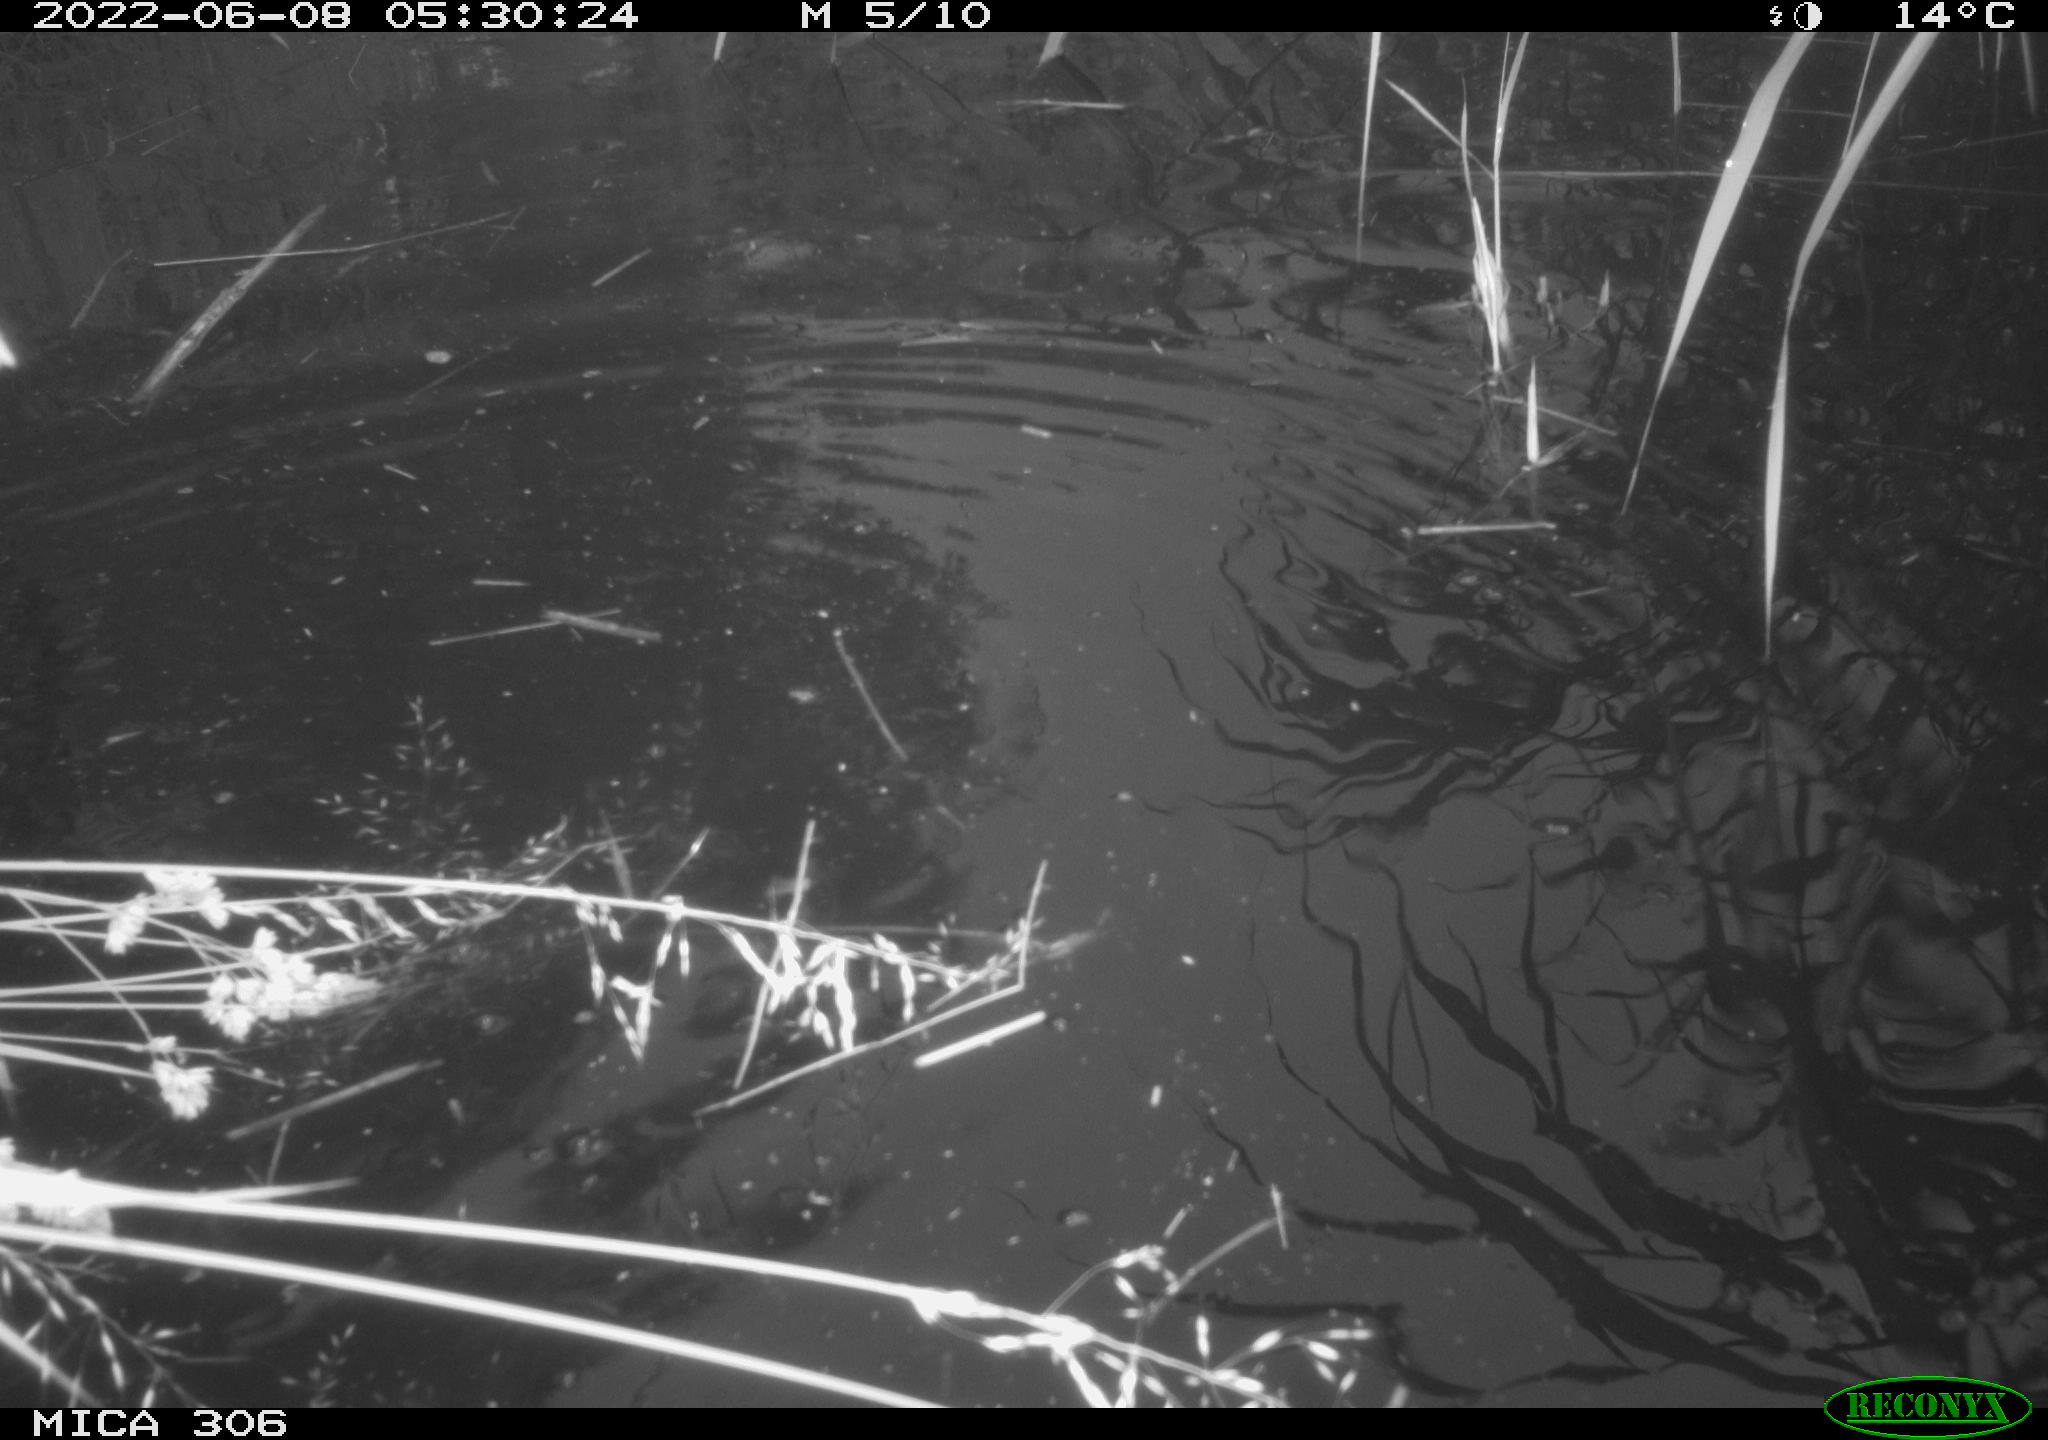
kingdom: Animalia
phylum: Chordata
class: Aves
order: Anseriformes
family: Anatidae
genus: Anas
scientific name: Anas platyrhynchos
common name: Mallard
